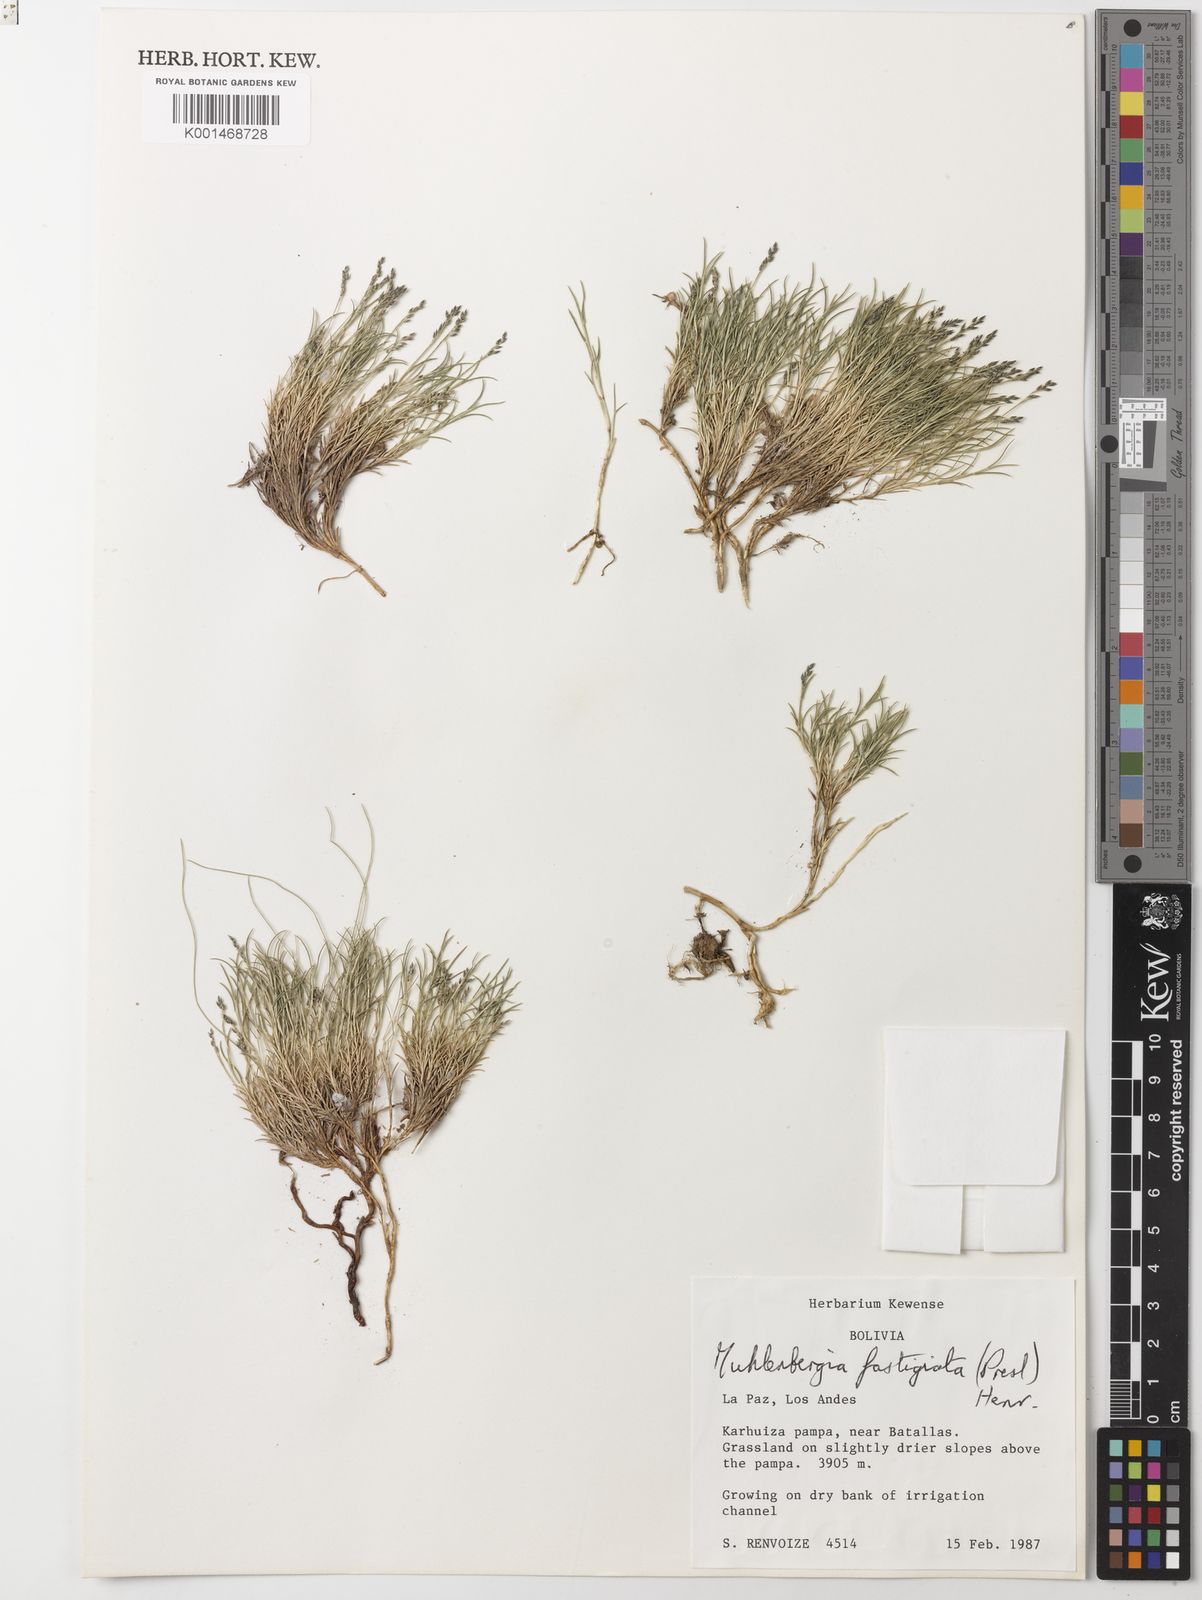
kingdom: Plantae
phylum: Tracheophyta
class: Liliopsida
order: Poales
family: Poaceae
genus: Muhlenbergia
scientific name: Muhlenbergia fastigiata
